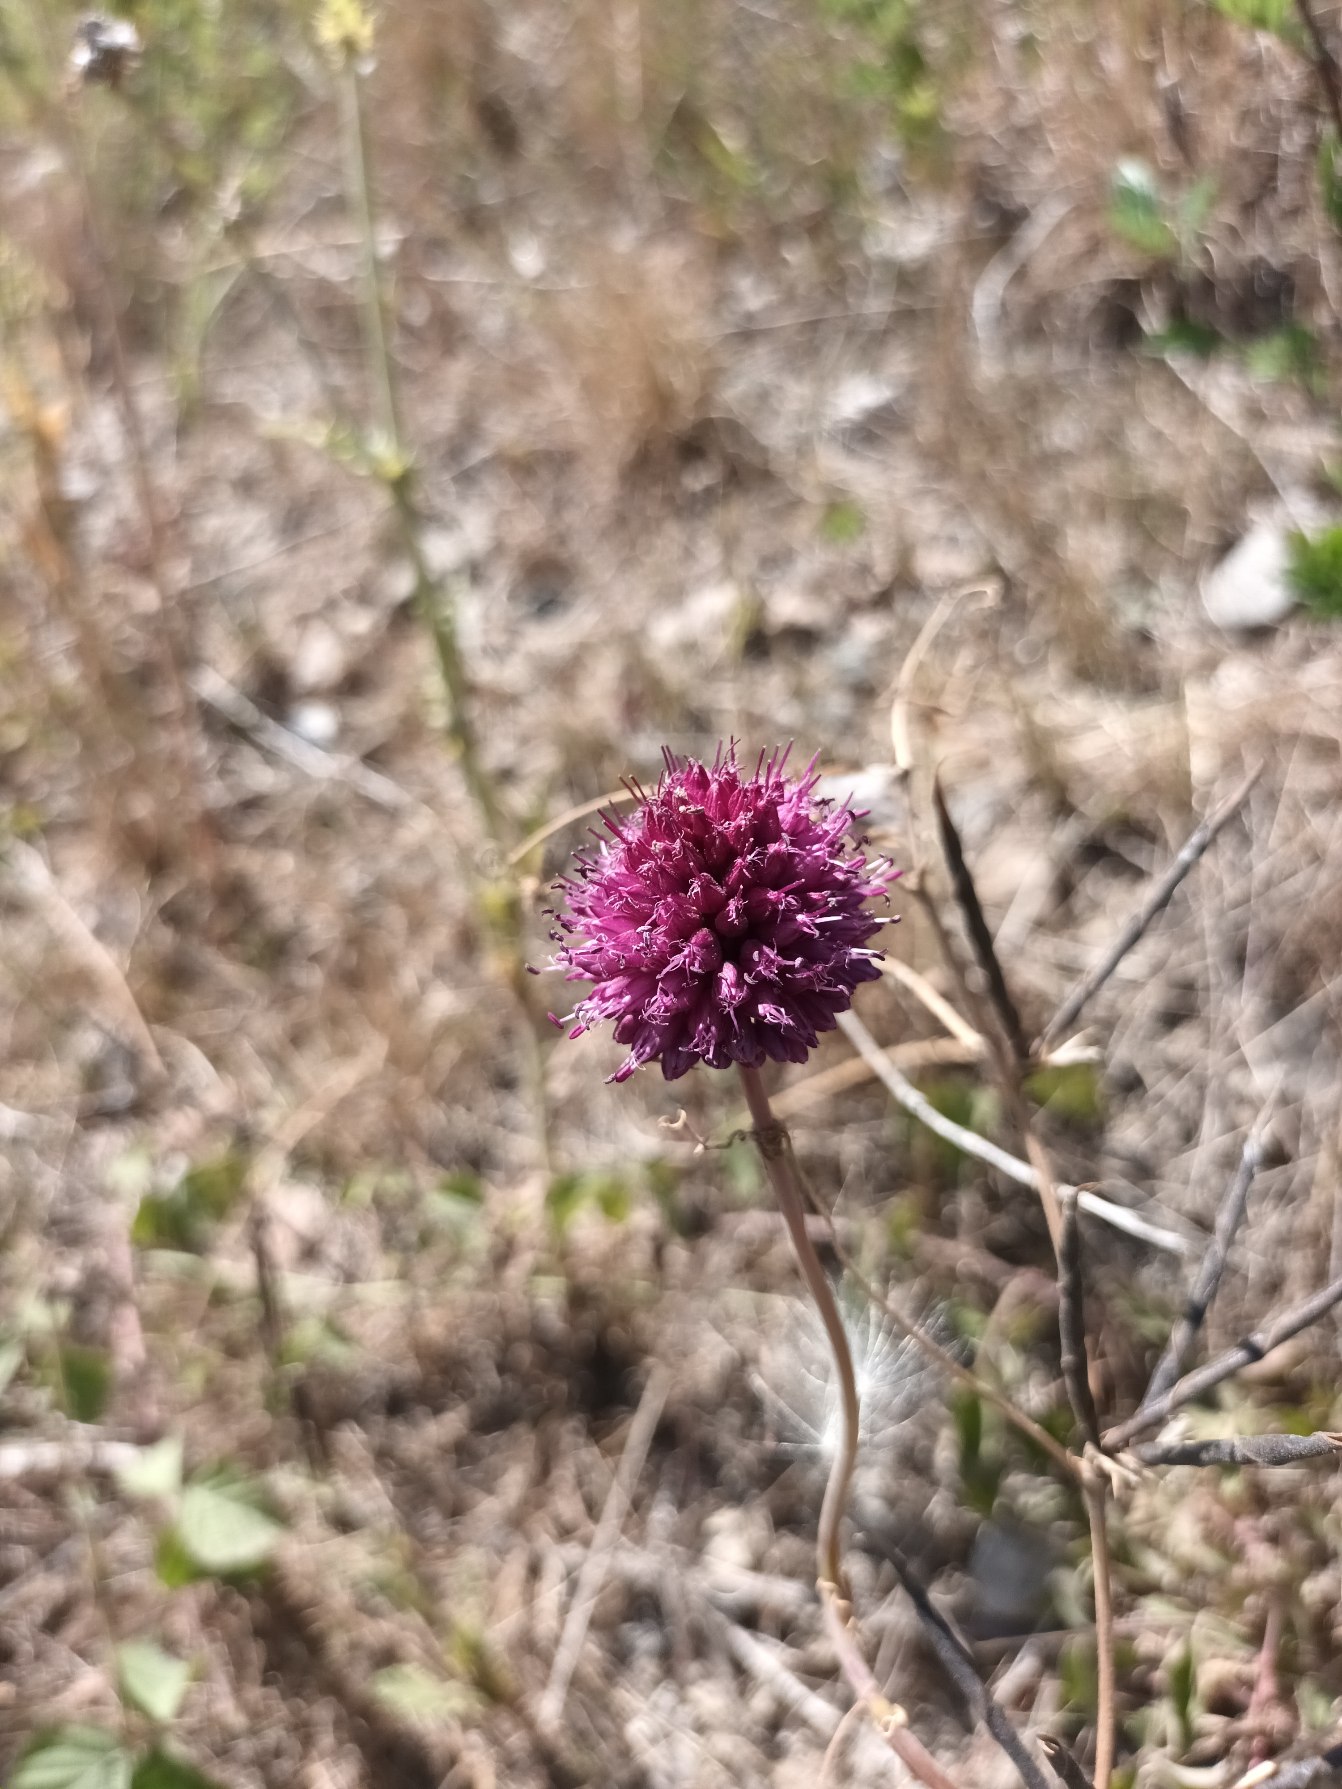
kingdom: Plantae
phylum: Tracheophyta
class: Liliopsida
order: Asparagales
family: Amaryllidaceae
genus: Allium
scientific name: Allium sphaerocephalon
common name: Middelhavs-prydløg
